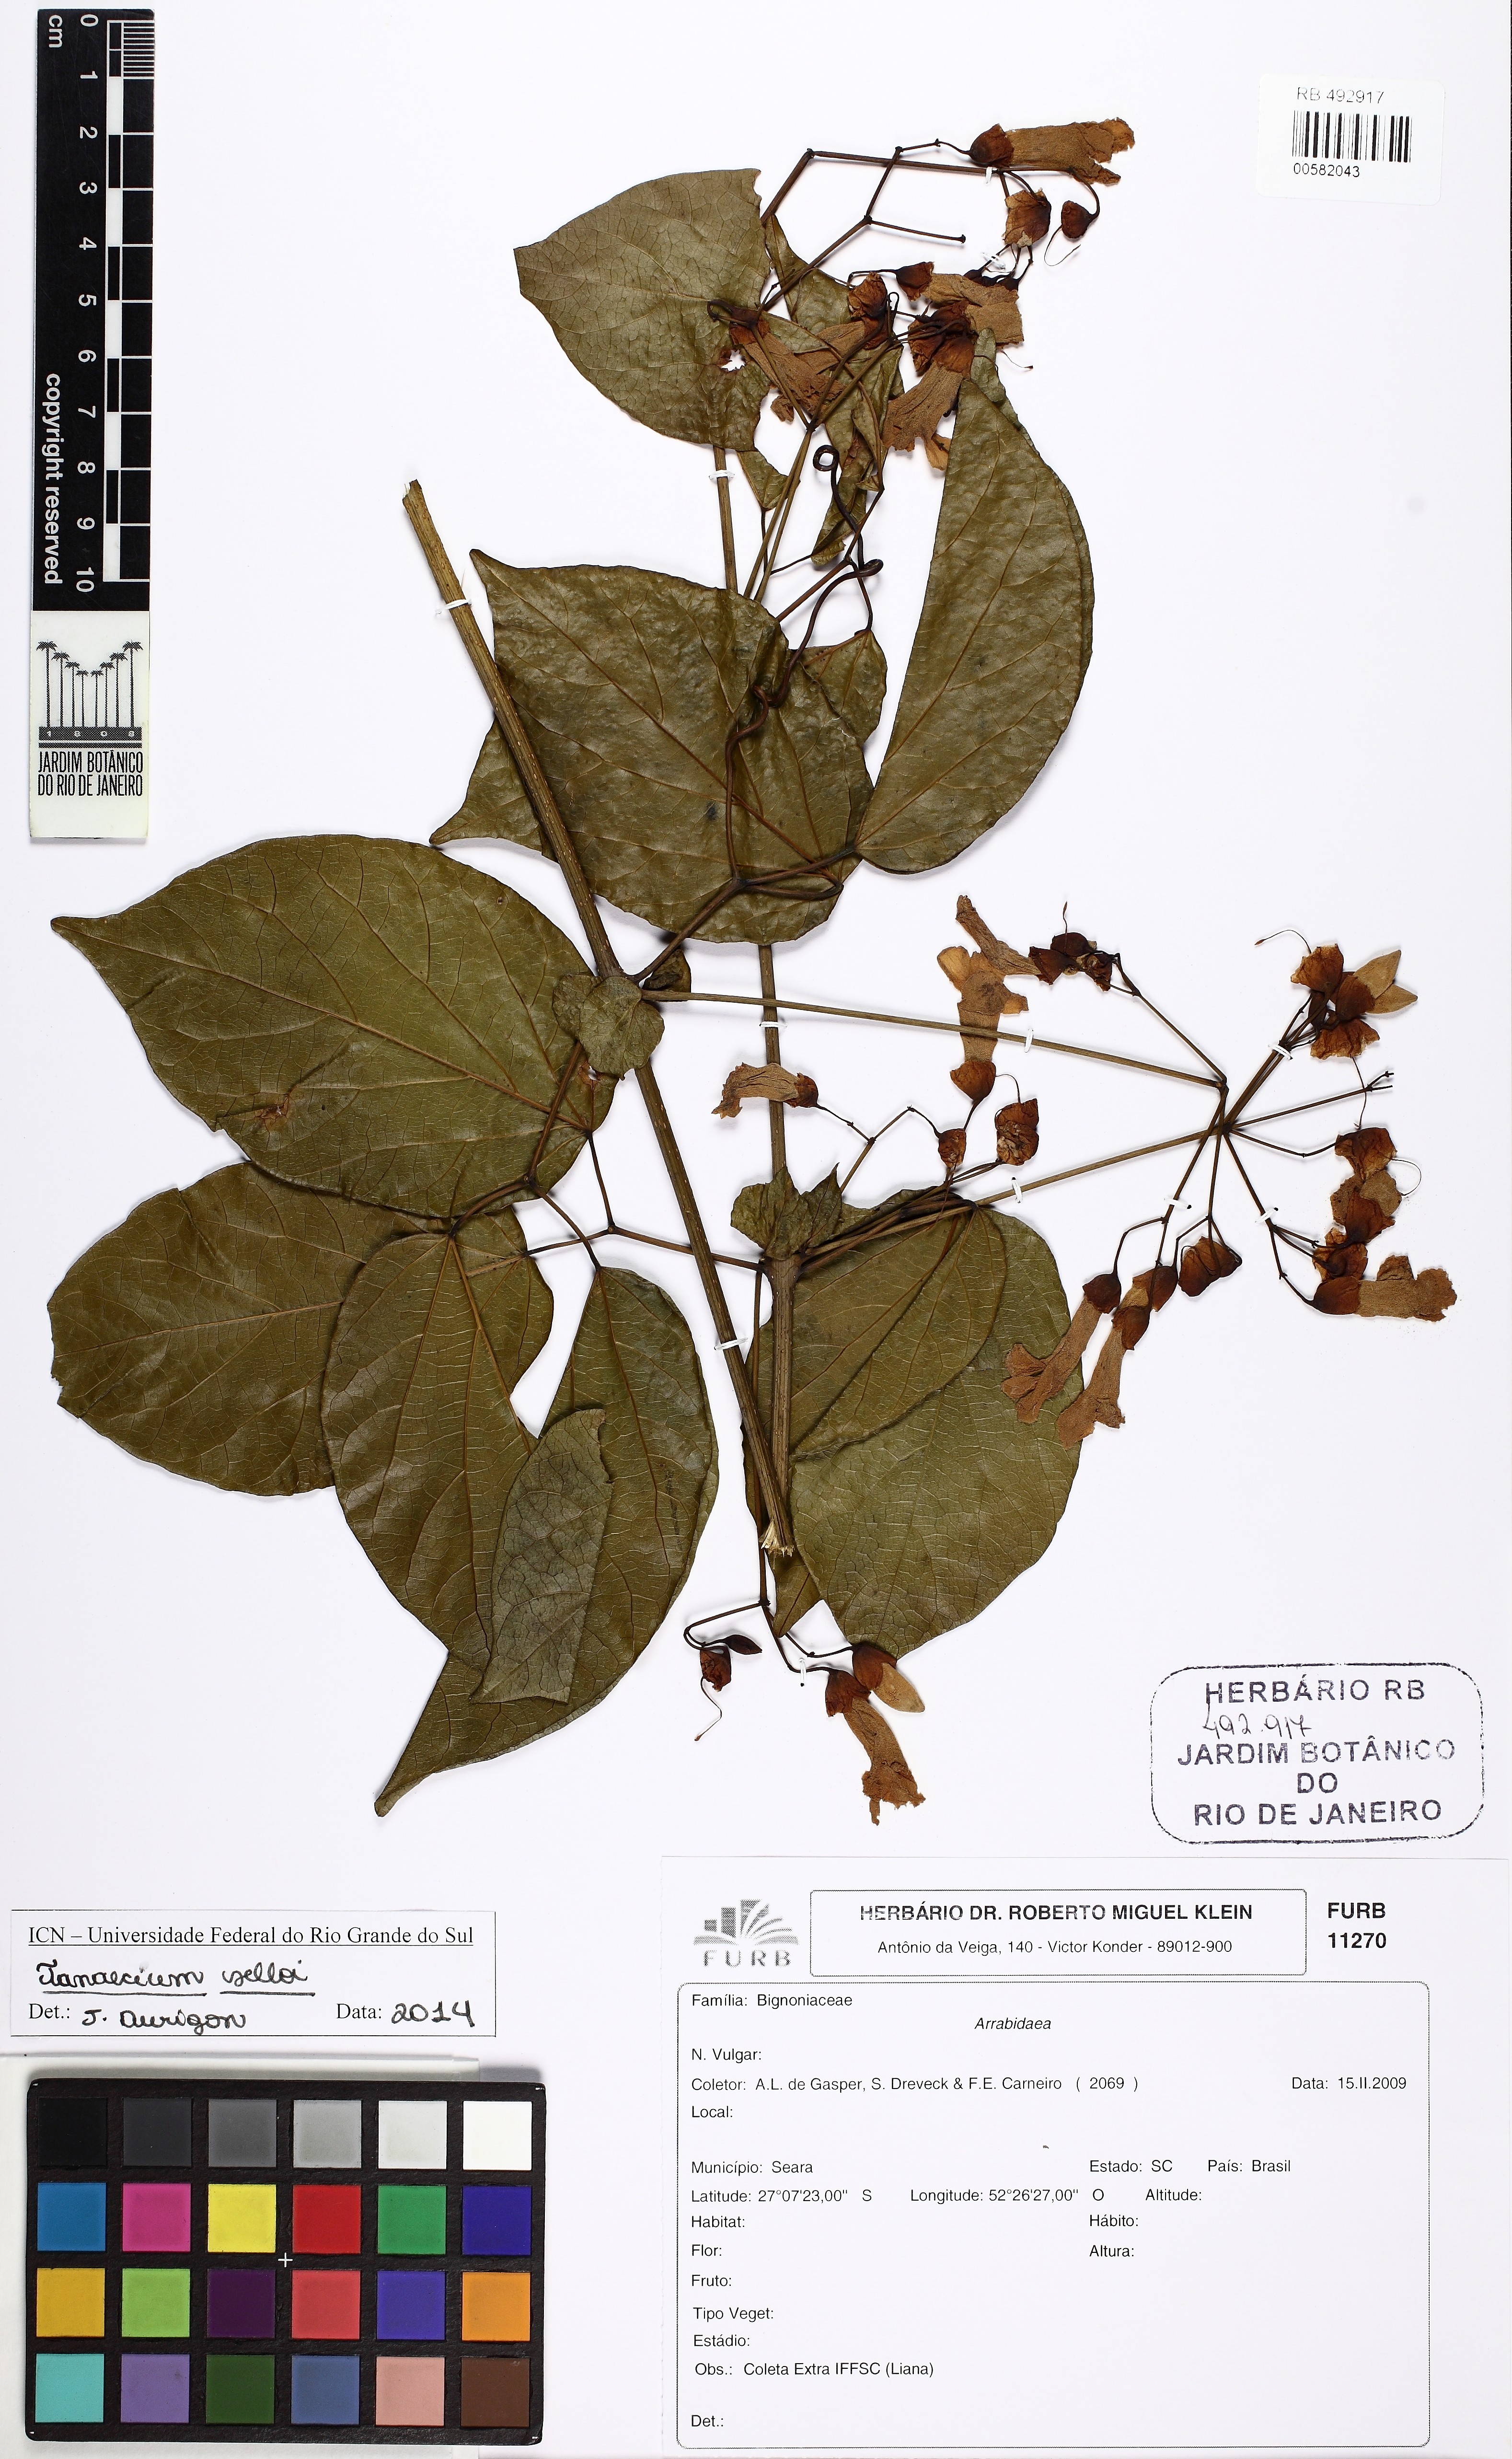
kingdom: Plantae
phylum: Tracheophyta
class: Magnoliopsida
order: Lamiales
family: Bignoniaceae
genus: Tanaecium
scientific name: Tanaecium selloi
